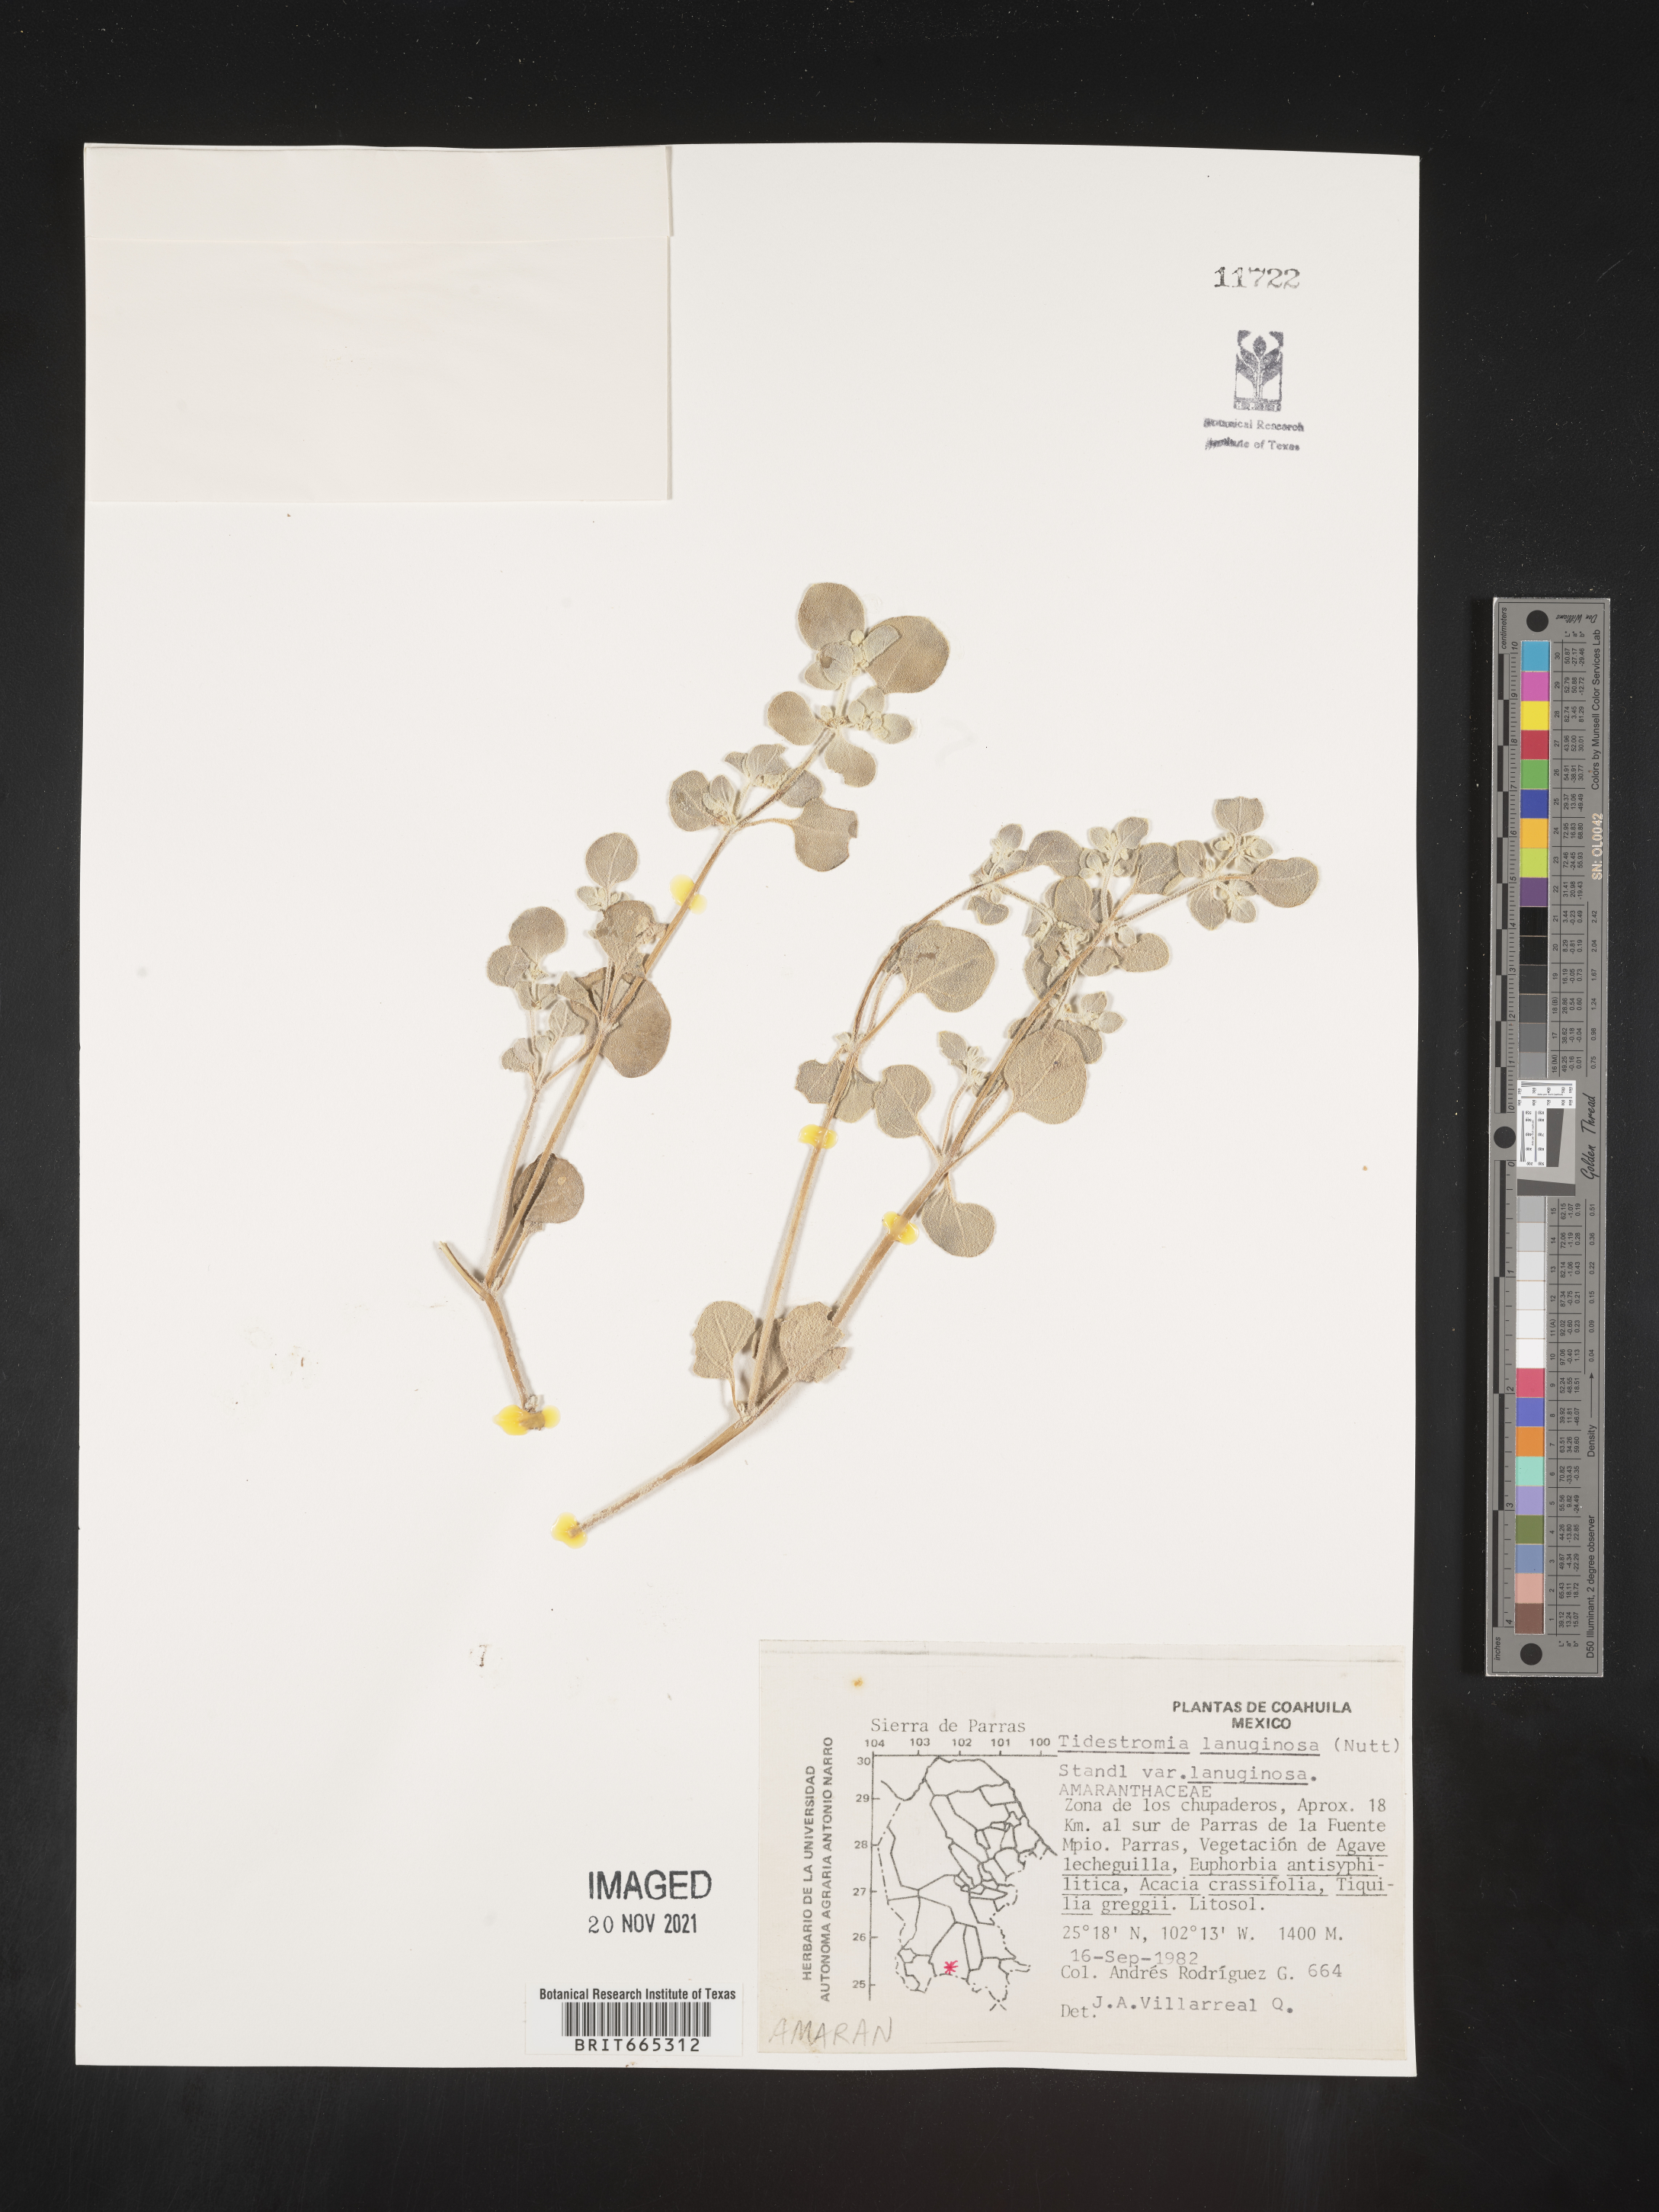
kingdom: Plantae
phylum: Tracheophyta
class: Magnoliopsida
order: Caryophyllales
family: Amaranthaceae
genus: Tidestromia
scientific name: Tidestromia
